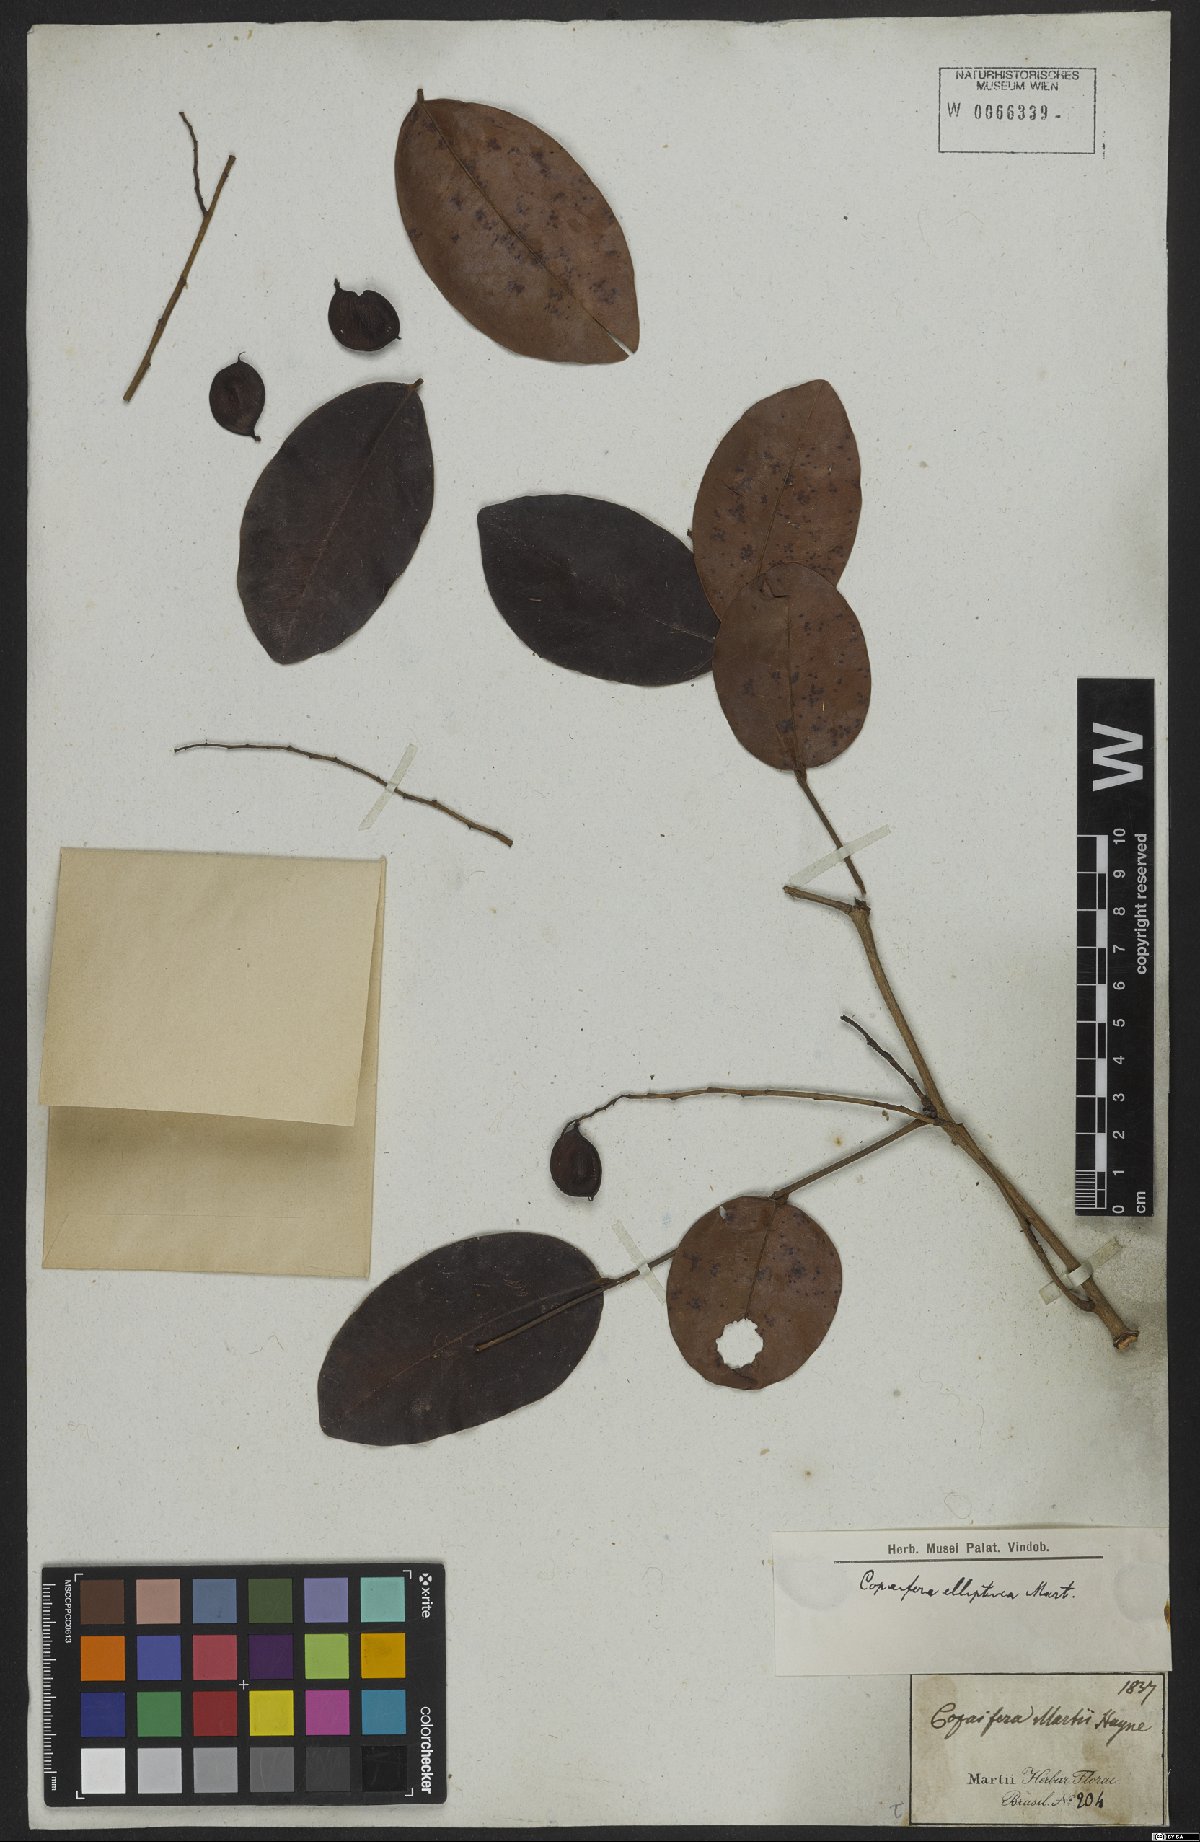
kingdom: Plantae
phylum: Tracheophyta
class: Magnoliopsida
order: Fabales
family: Fabaceae
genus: Copaifera
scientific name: Copaifera elliptica
